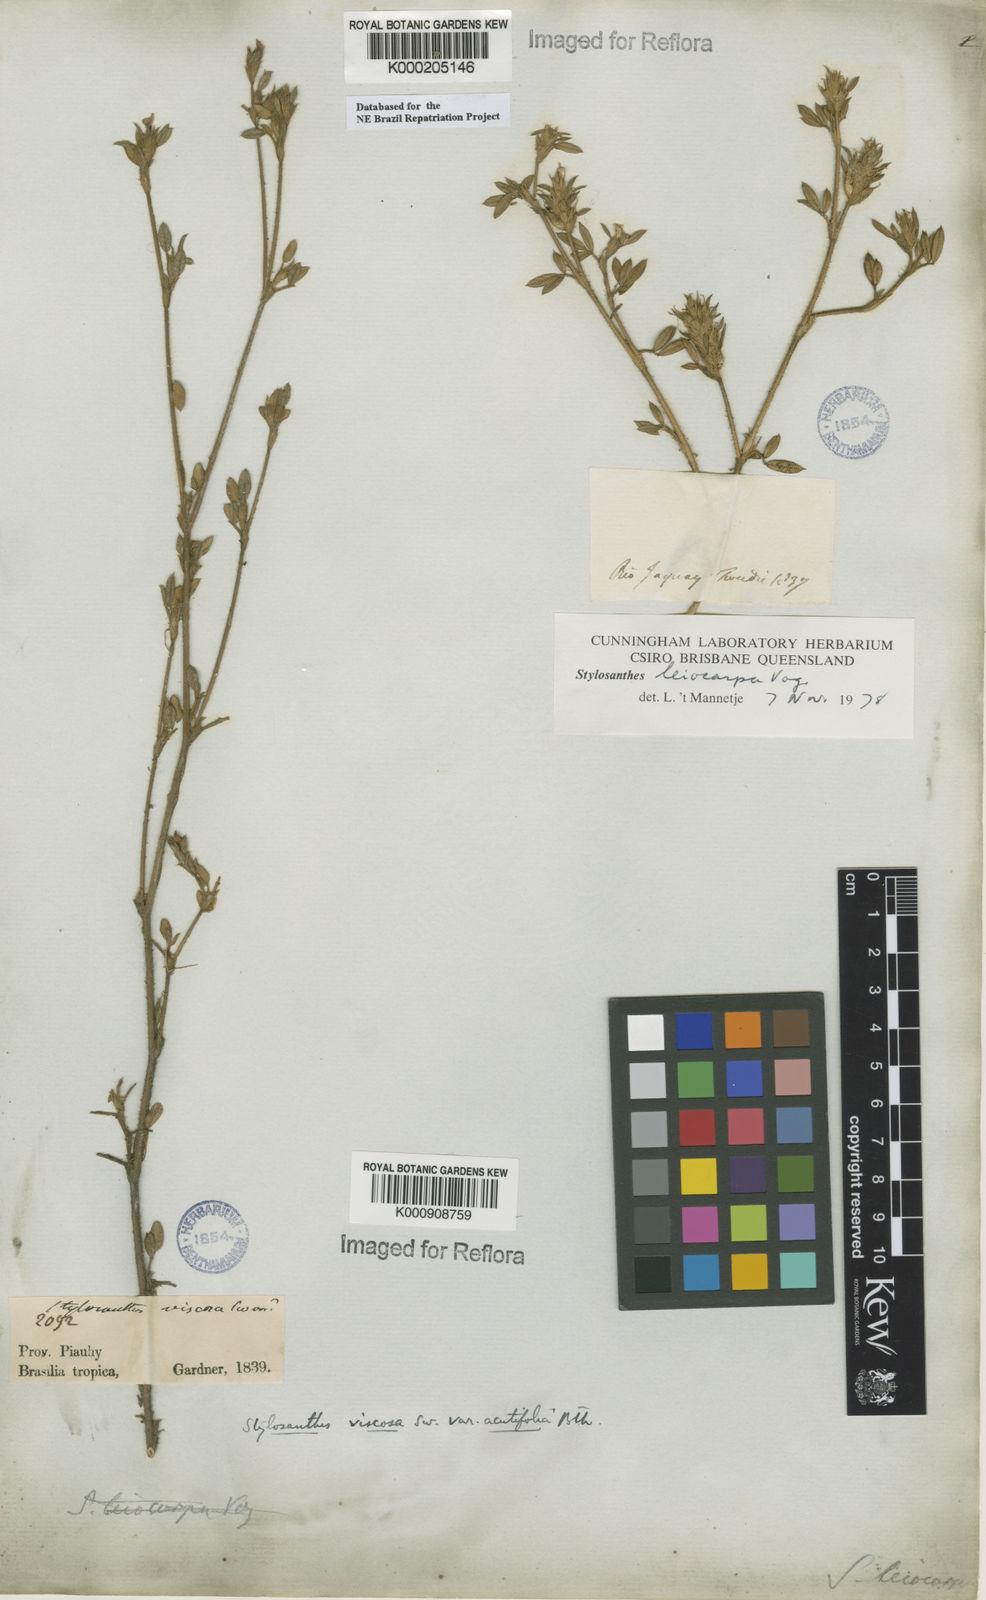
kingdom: Plantae
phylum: Tracheophyta
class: Magnoliopsida
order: Fabales
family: Fabaceae
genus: Stylosanthes
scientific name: Stylosanthes viscosa
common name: Viscid pencil-flower
